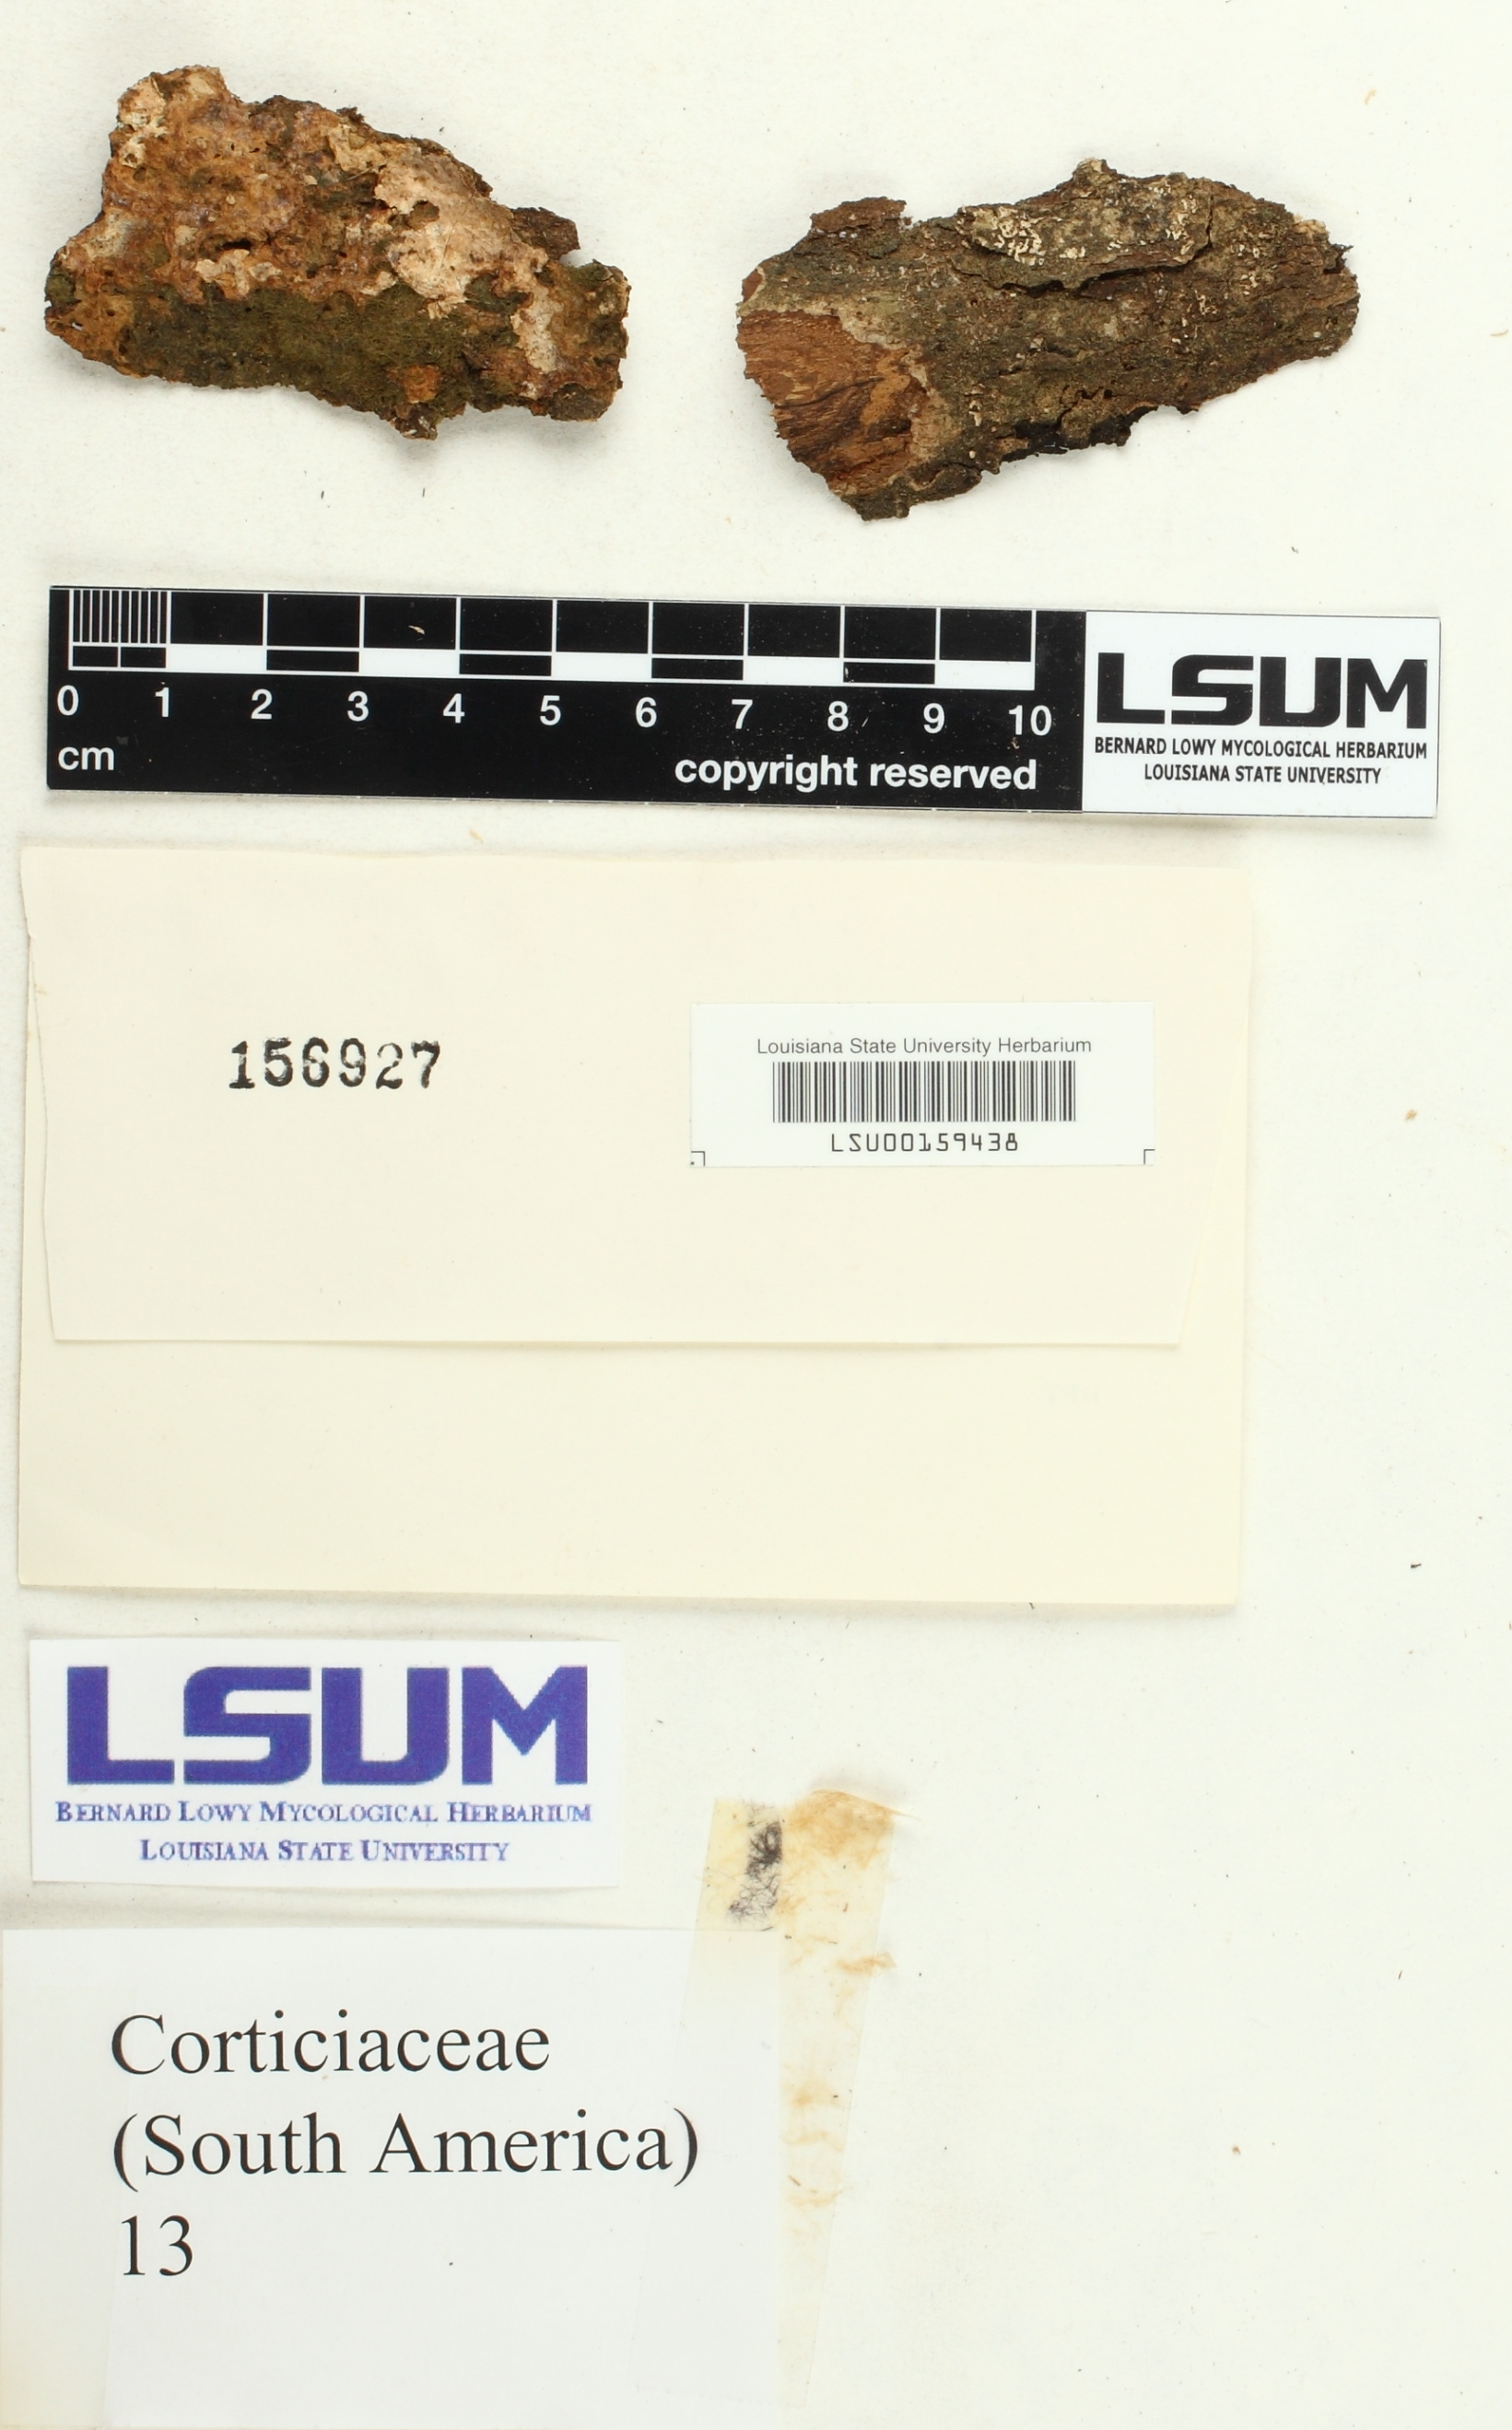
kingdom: Fungi
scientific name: Fungi
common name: Fungi
